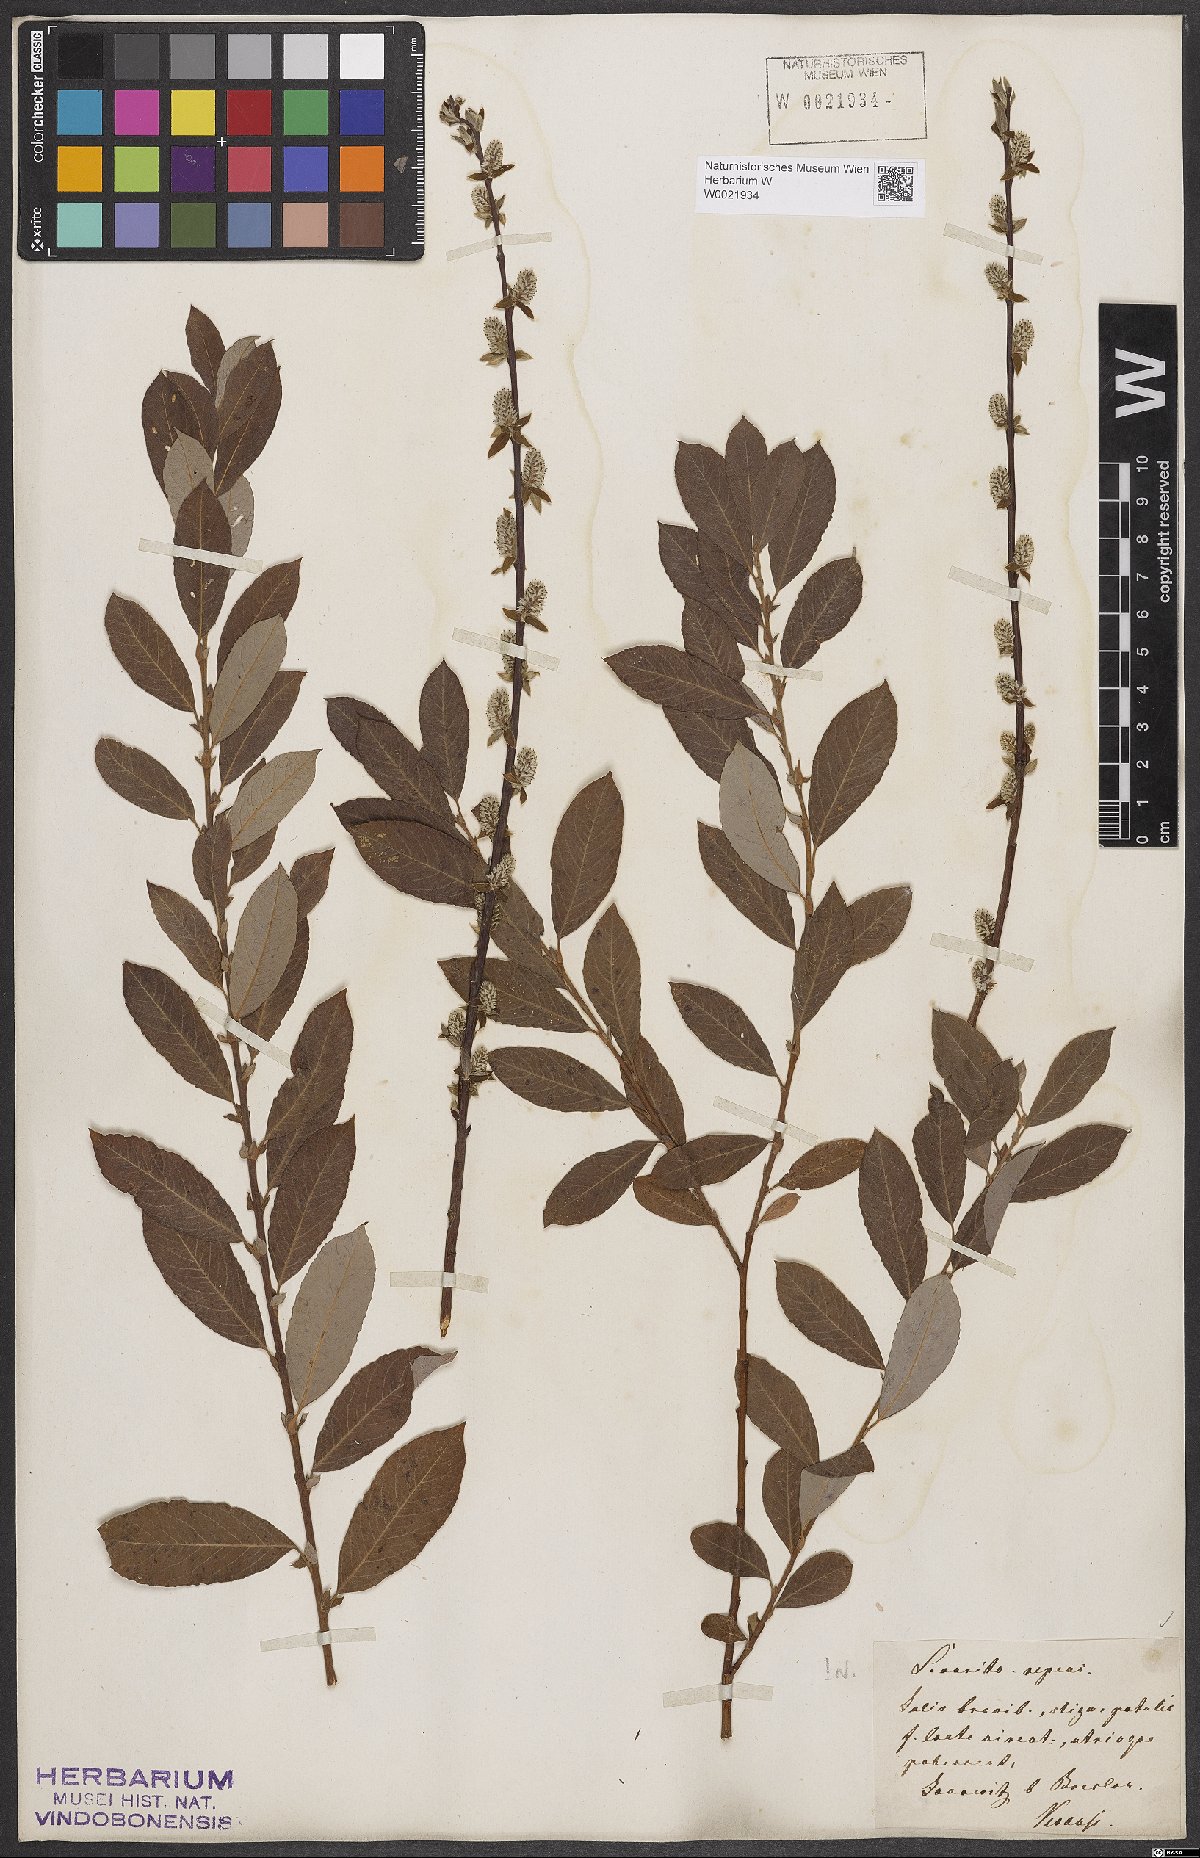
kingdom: Plantae
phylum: Tracheophyta
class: Magnoliopsida
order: Malpighiales
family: Salicaceae
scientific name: Salicaceae
